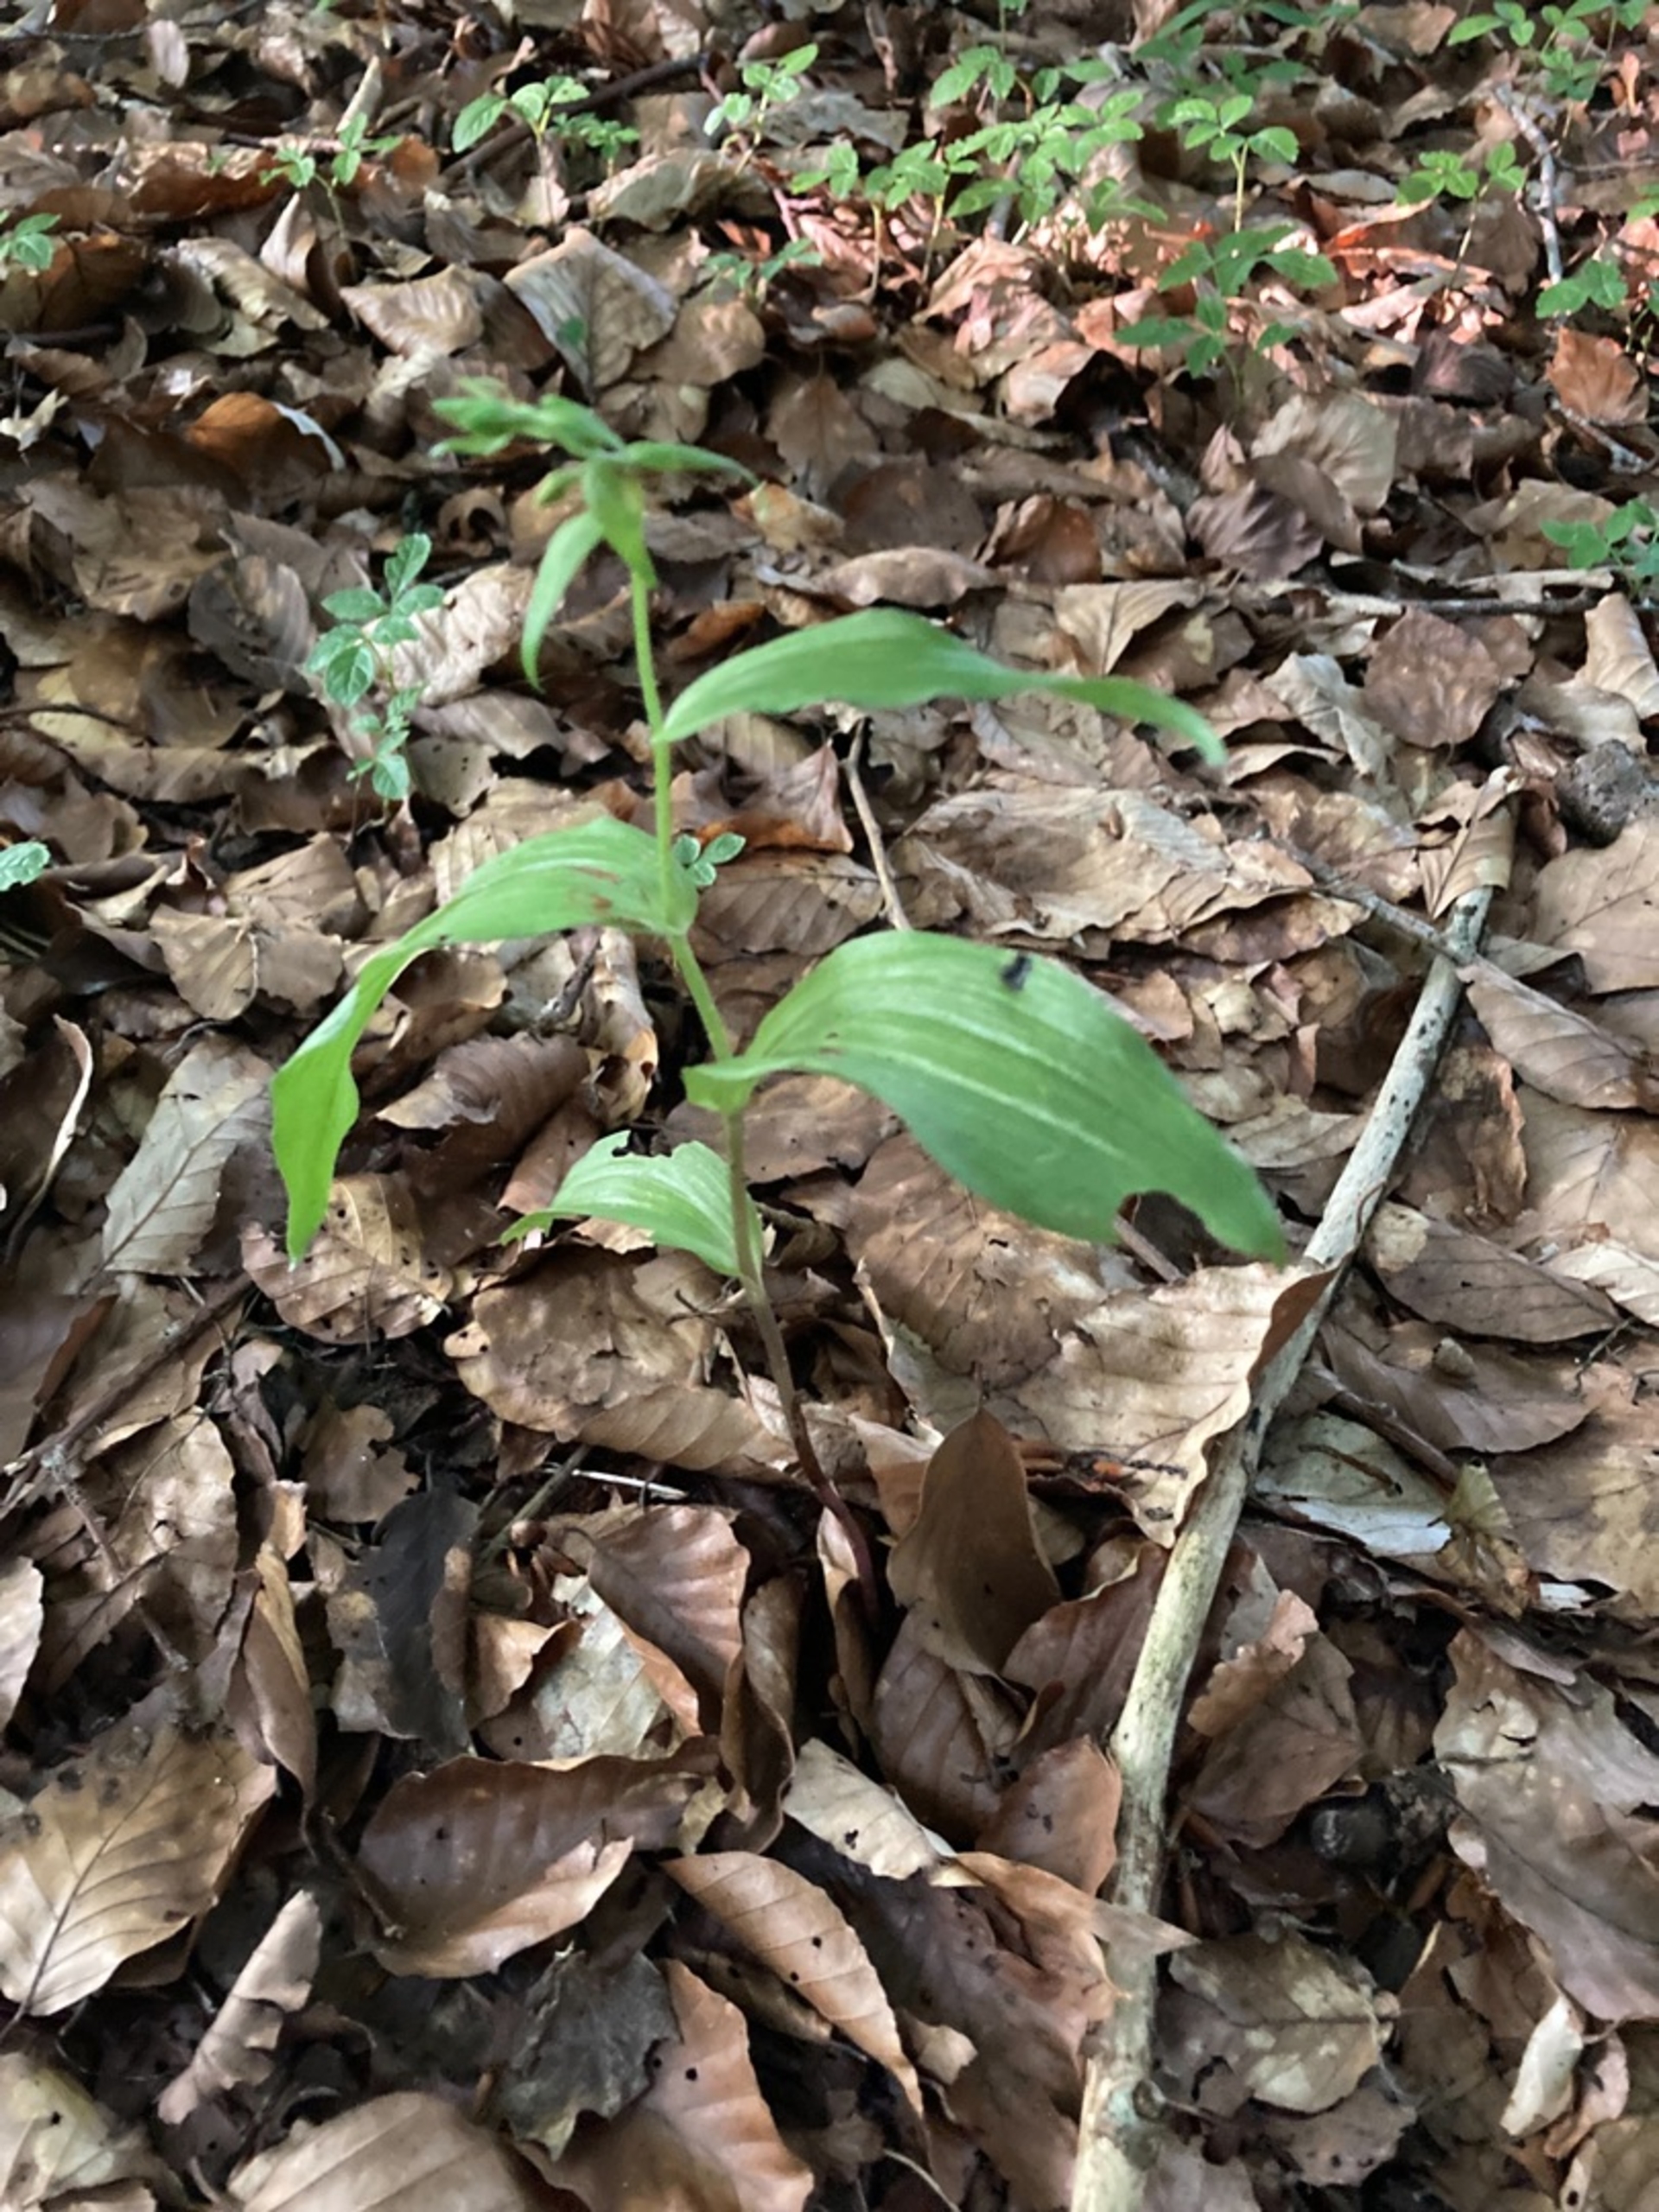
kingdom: Plantae
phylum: Tracheophyta
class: Liliopsida
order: Asparagales
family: Orchidaceae
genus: Epipactis
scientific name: Epipactis helleborine
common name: Skov-hullæbe
